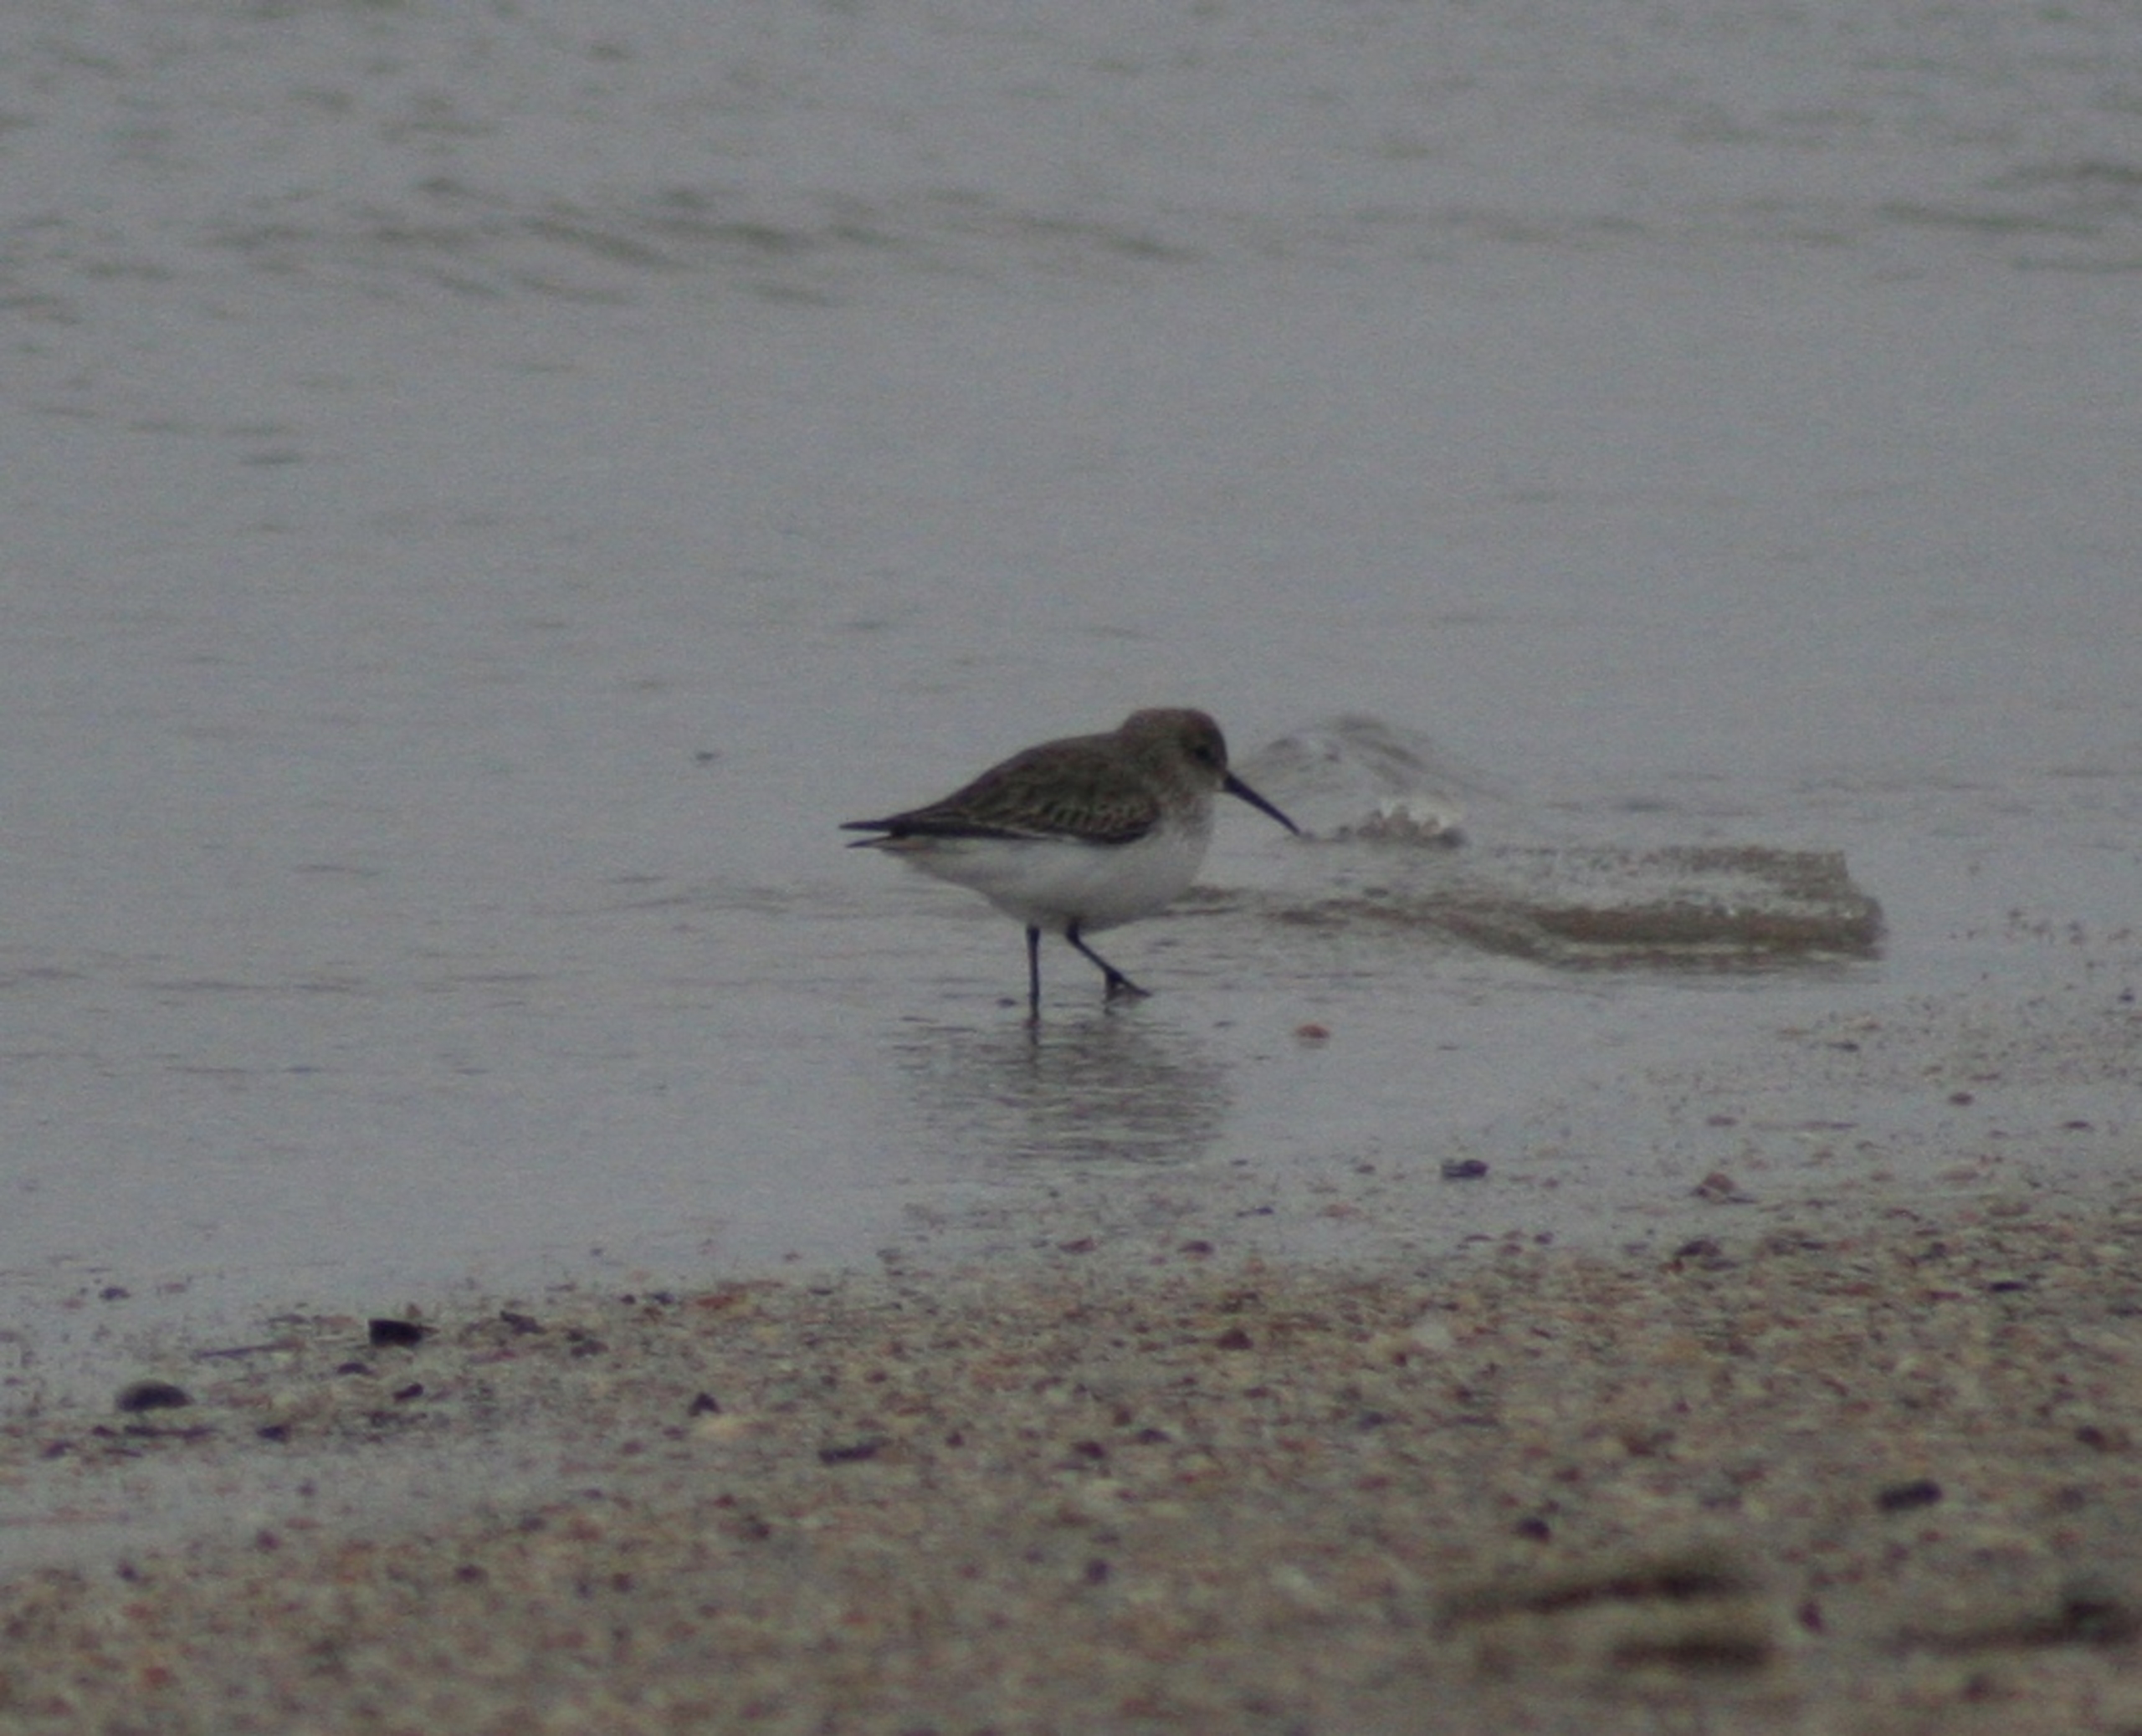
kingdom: Animalia
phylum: Chordata
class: Aves
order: Charadriiformes
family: Scolopacidae
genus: Calidris
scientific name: Calidris alpina
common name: Almindelig ryle
